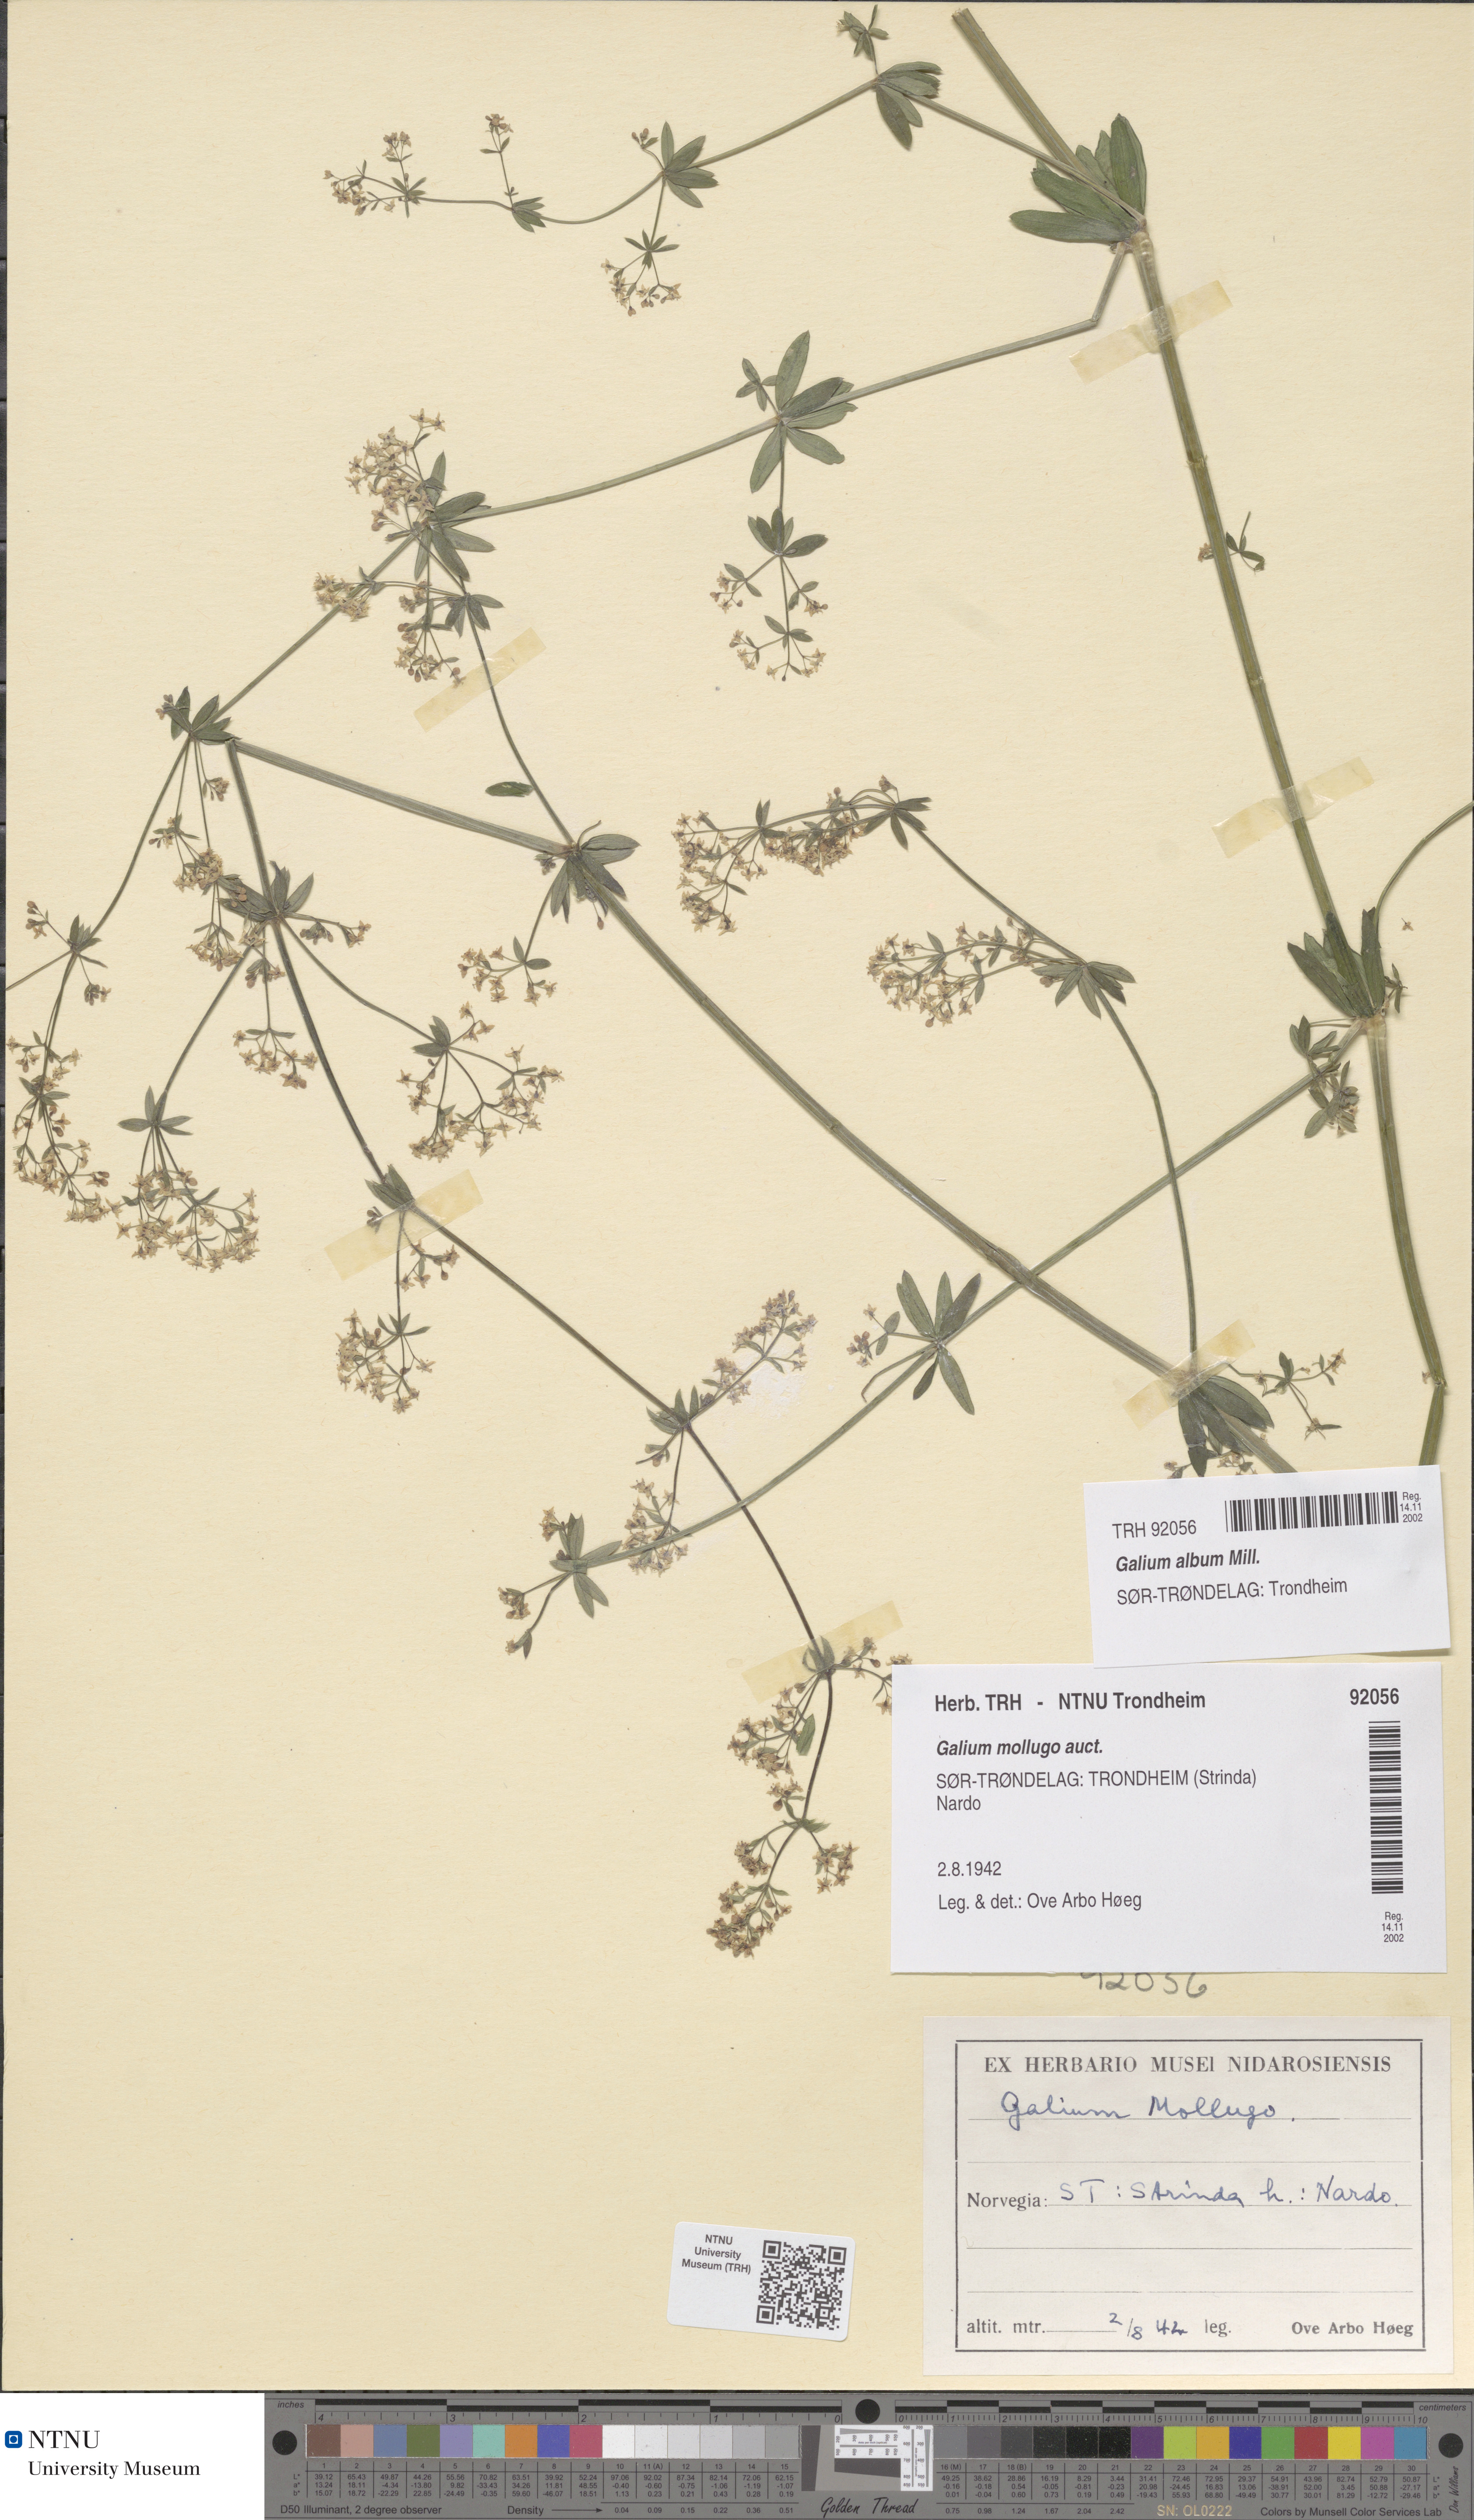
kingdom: Plantae
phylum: Tracheophyta
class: Magnoliopsida
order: Gentianales
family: Rubiaceae
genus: Galium
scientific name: Galium album
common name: White bedstraw
